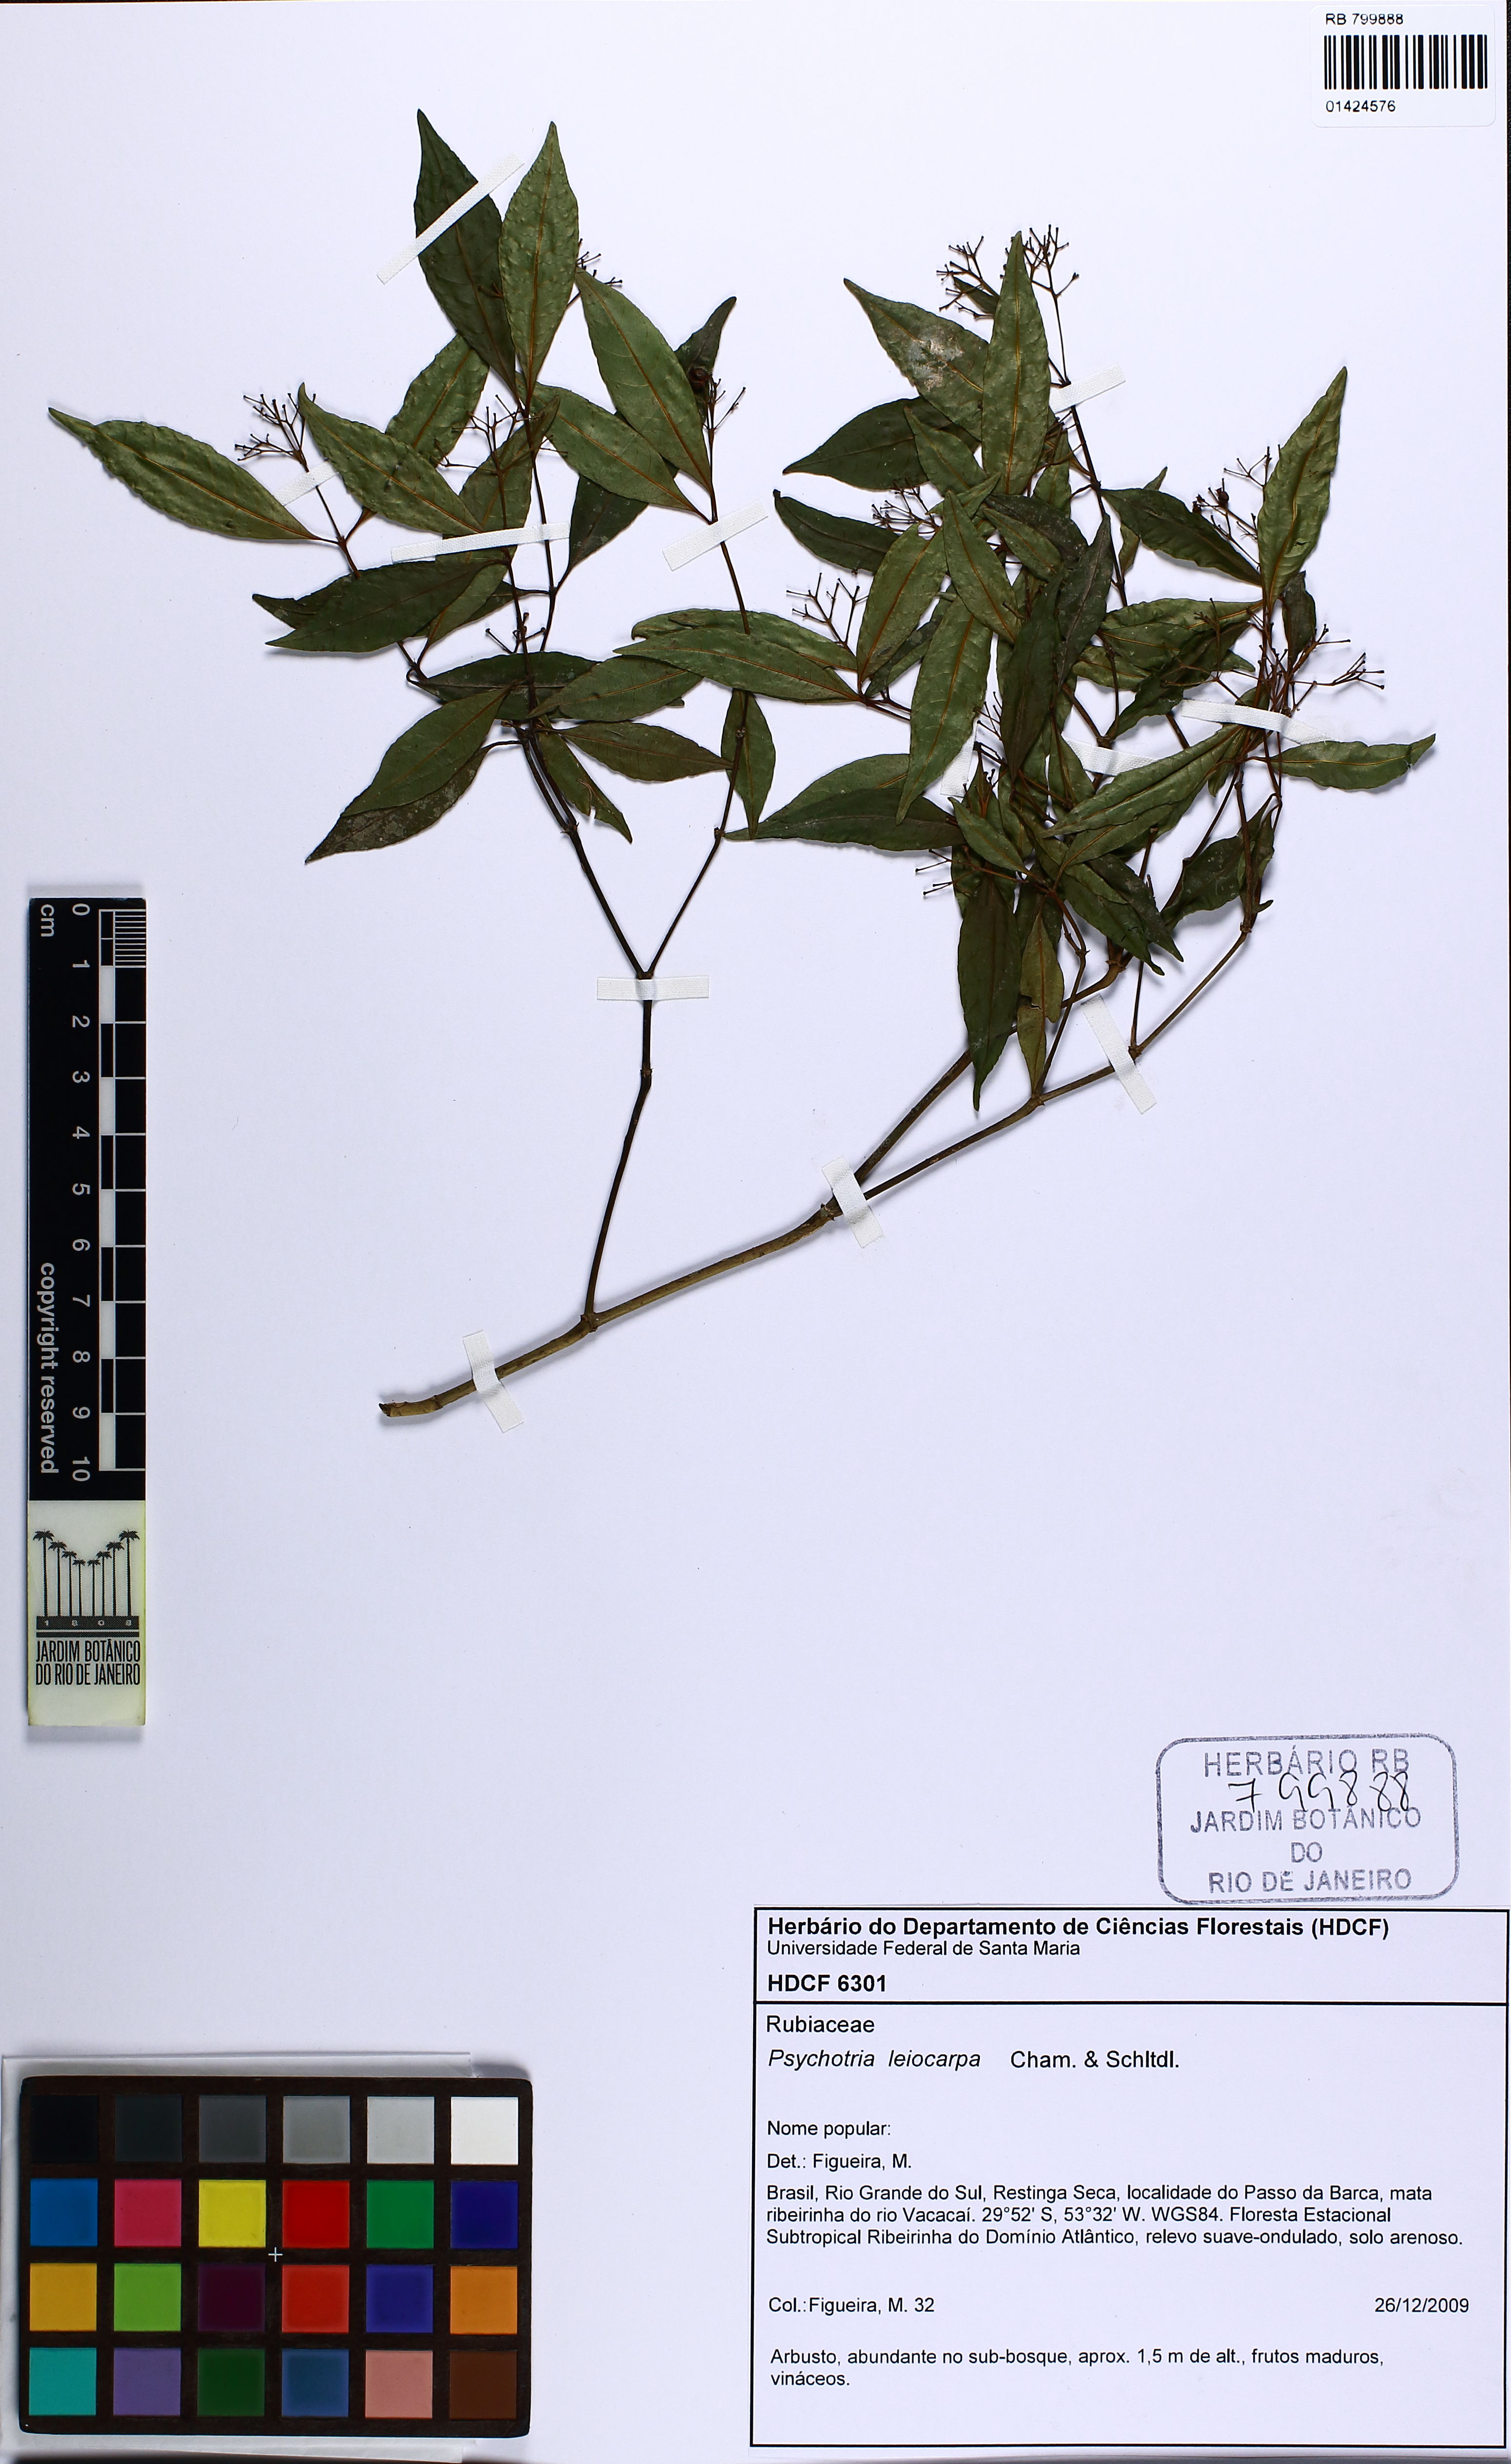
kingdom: Plantae
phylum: Tracheophyta
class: Magnoliopsida
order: Gentianales
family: Rubiaceae
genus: Psychotria
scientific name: Psychotria leiocarpa
